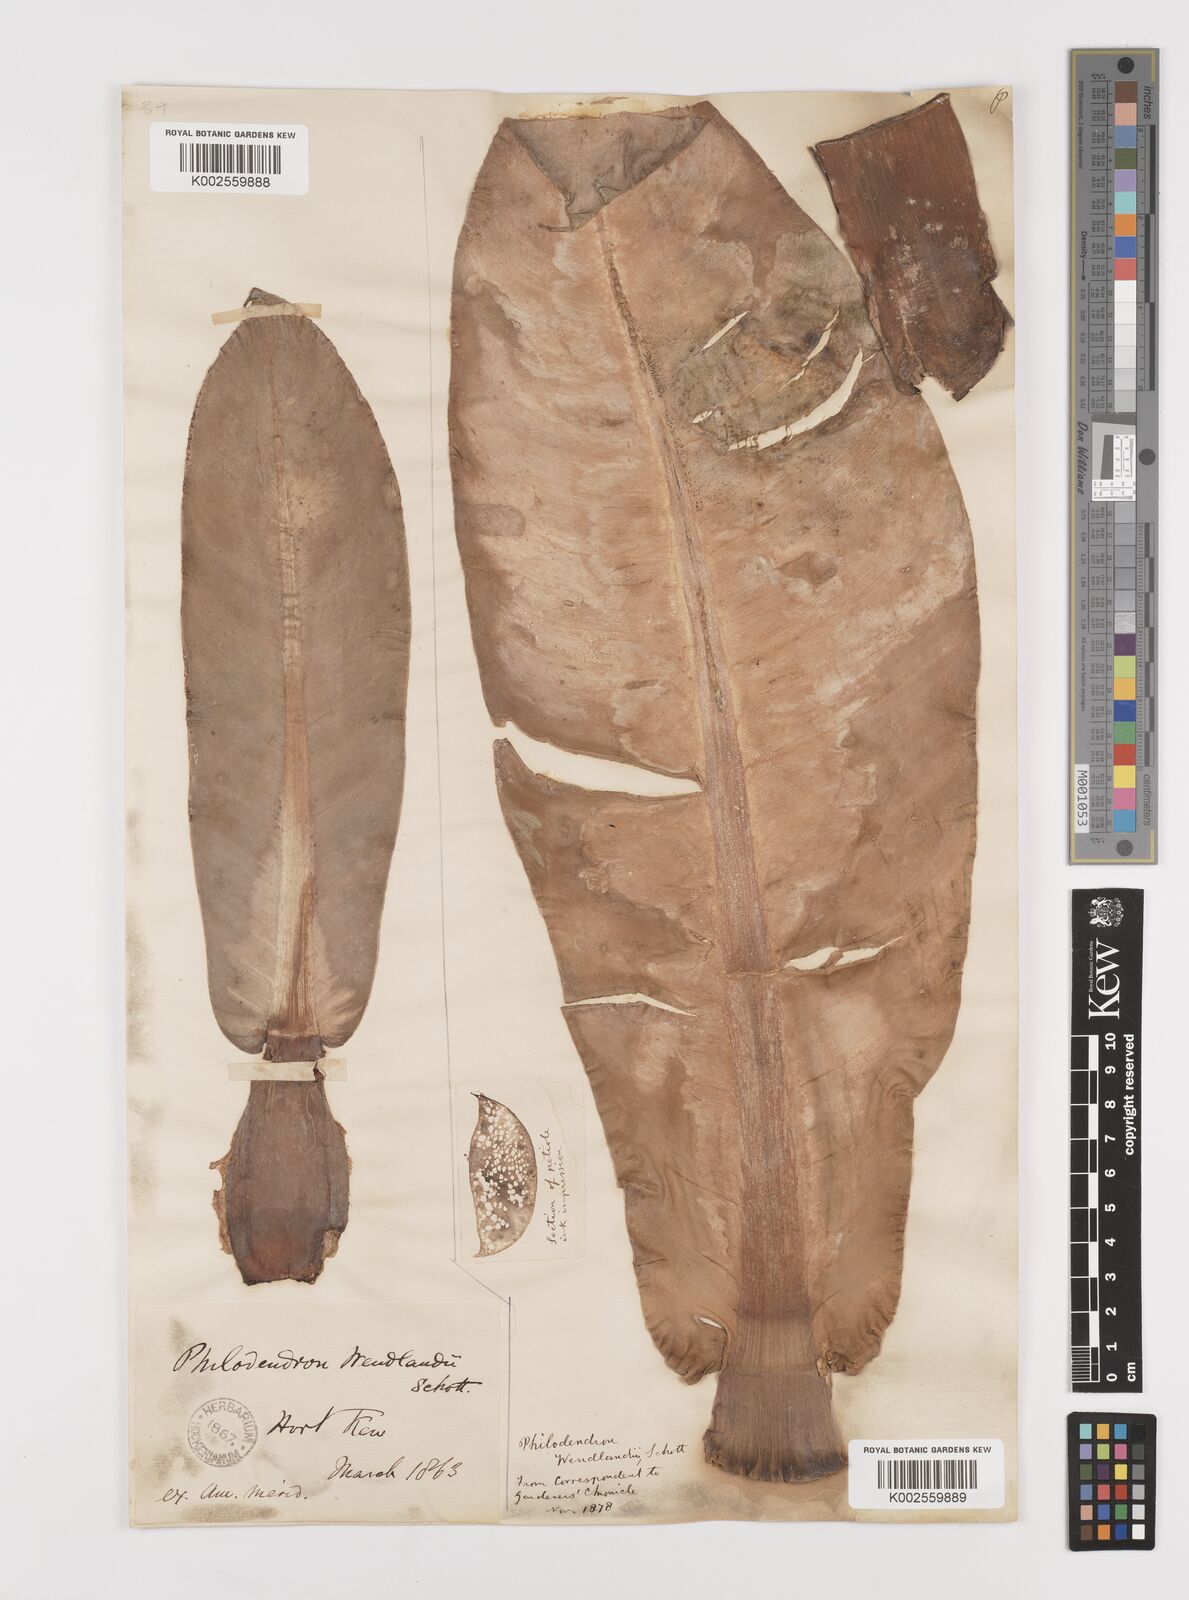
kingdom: Plantae
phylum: Tracheophyta
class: Liliopsida
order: Alismatales
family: Araceae
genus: Philodendron
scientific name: Philodendron wendlandii
